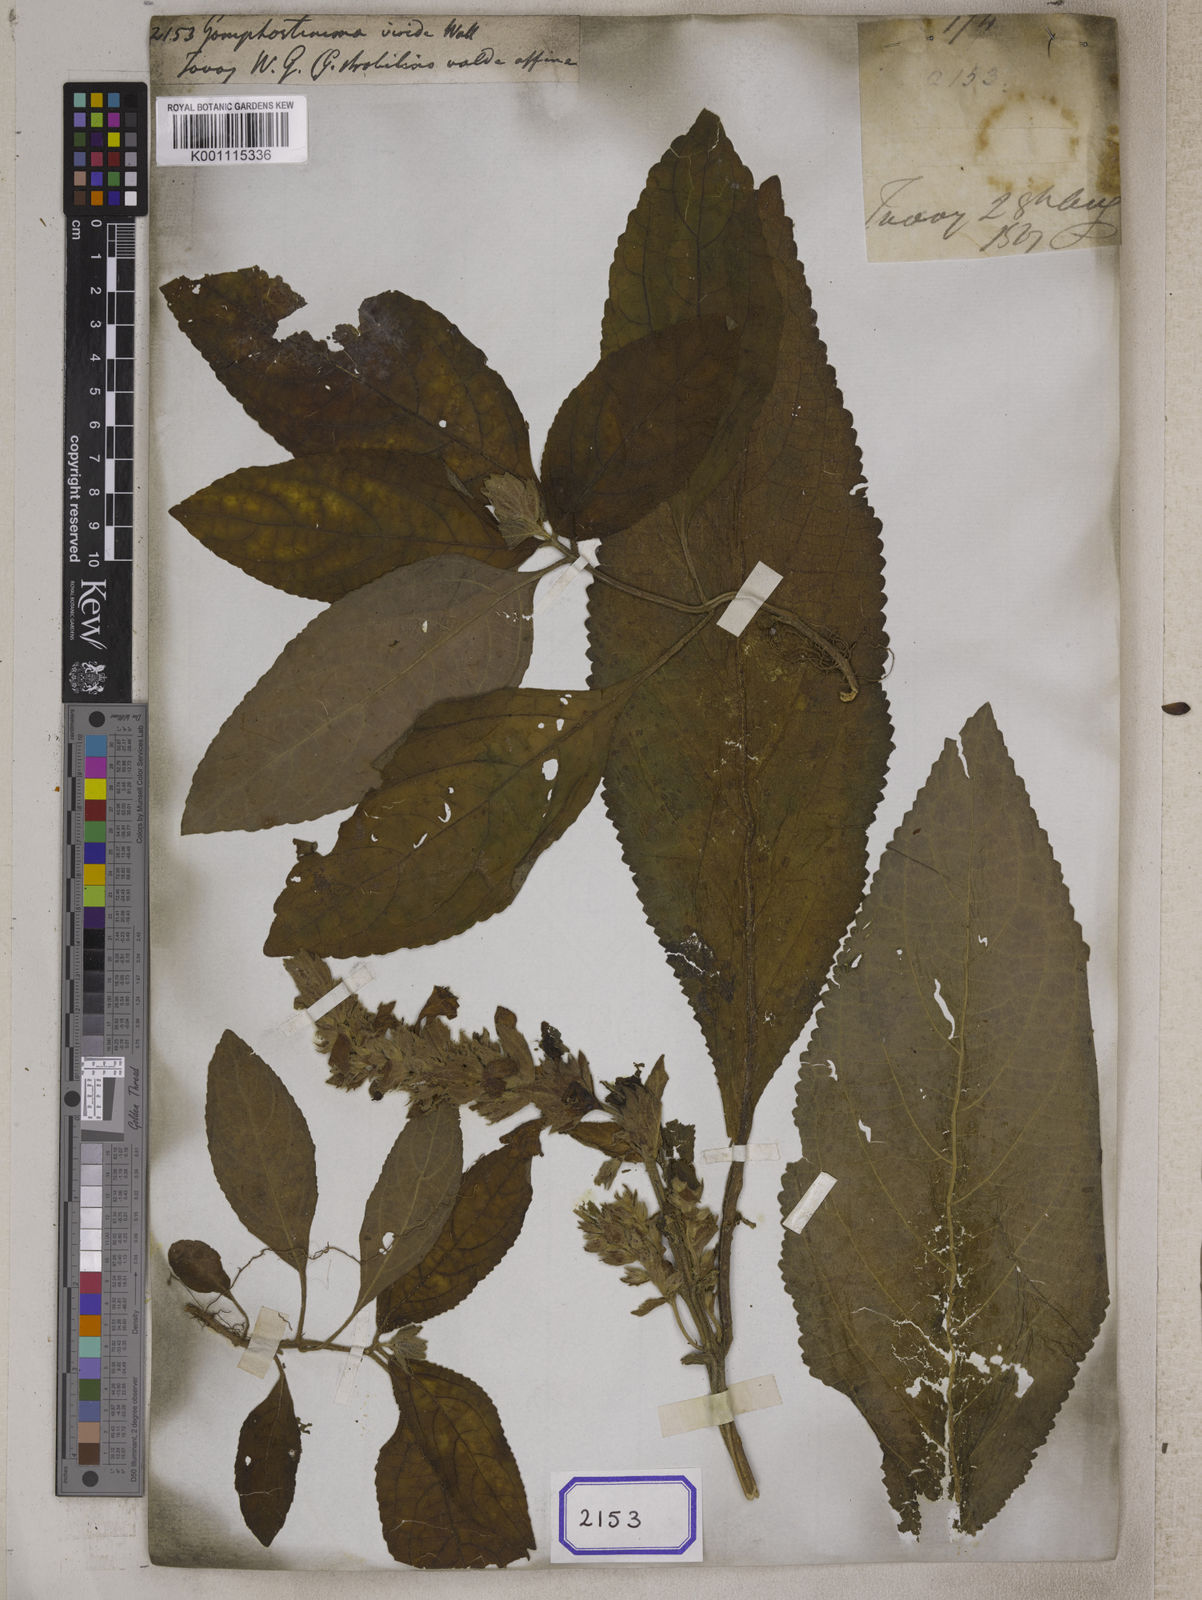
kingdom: Plantae
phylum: Tracheophyta
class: Magnoliopsida
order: Lamiales
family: Lamiaceae
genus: Gomphostemma
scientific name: Gomphostemma
